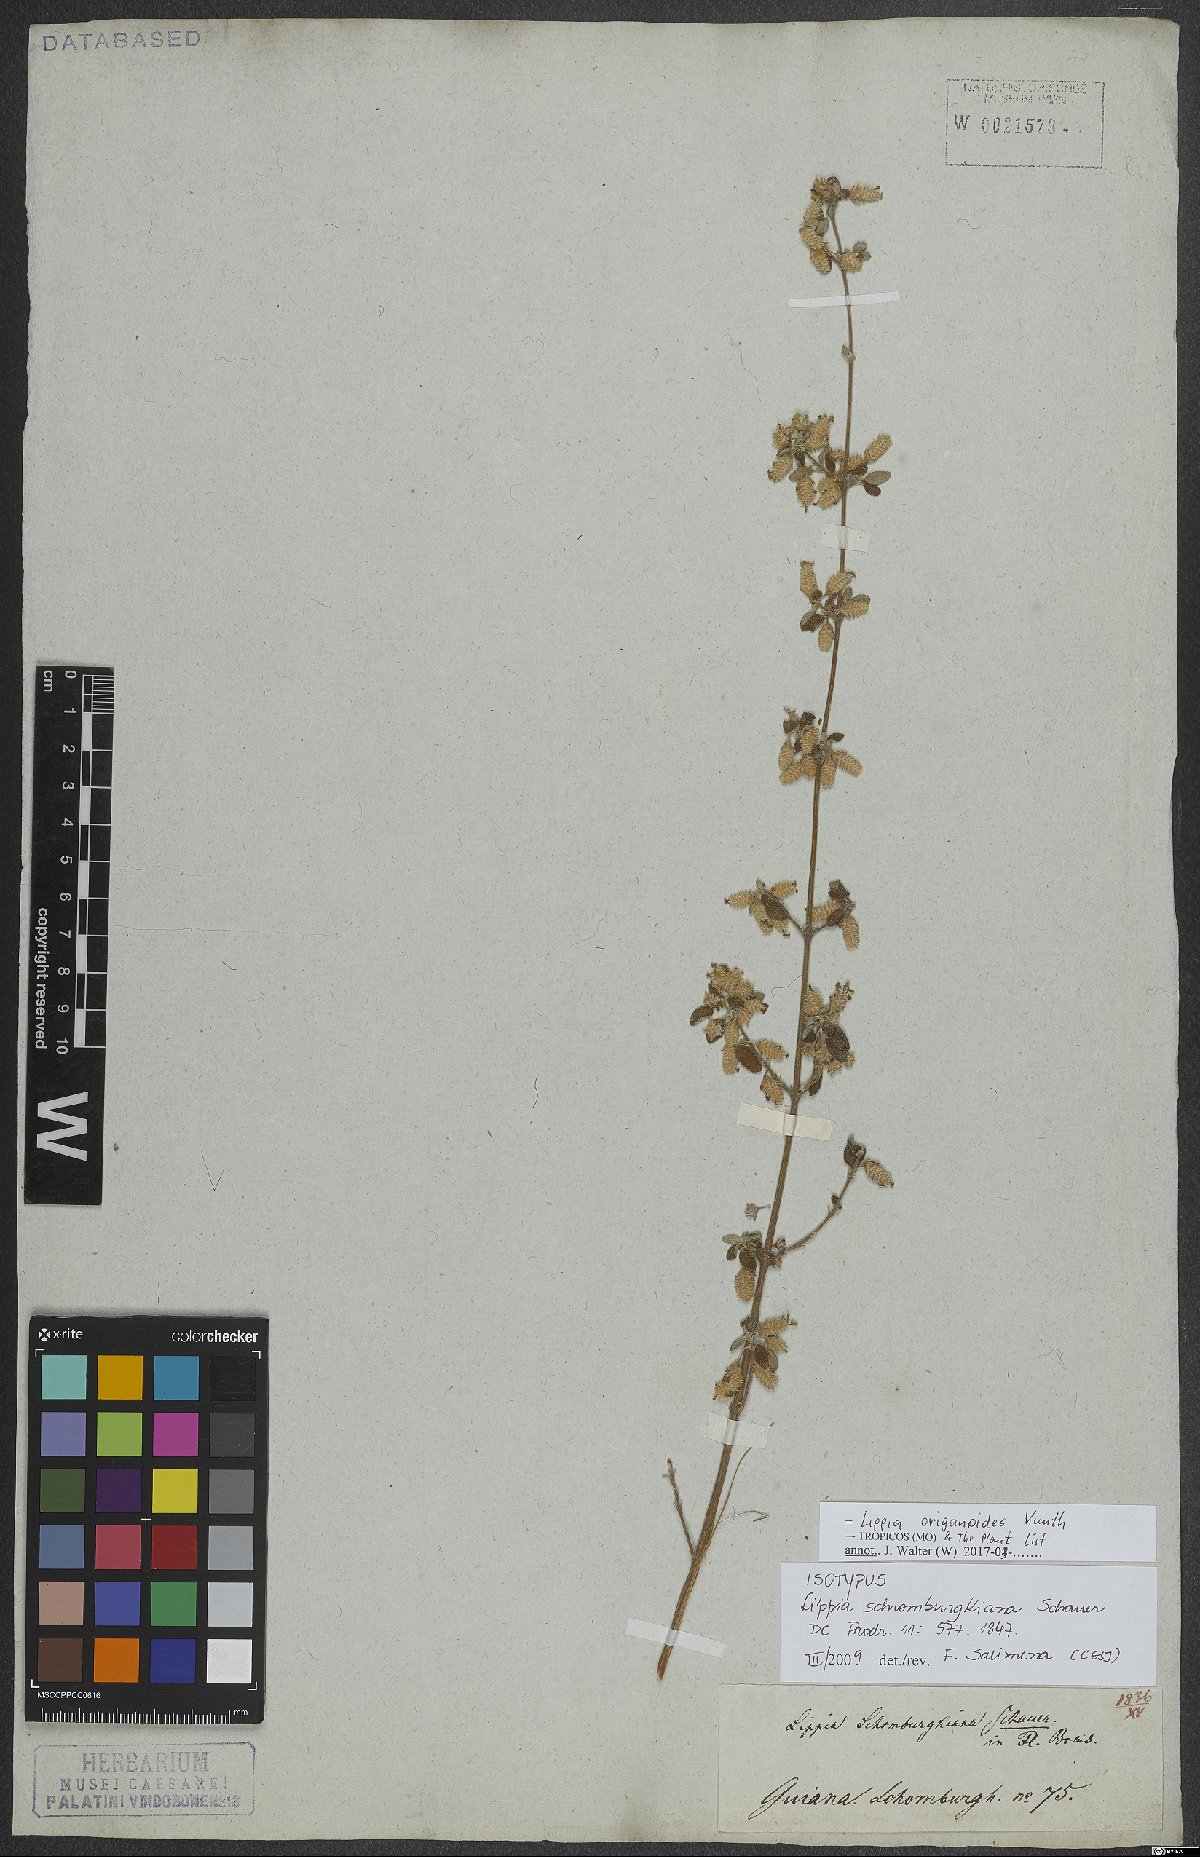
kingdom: Plantae
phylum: Tracheophyta
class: Magnoliopsida
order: Lamiales
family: Verbenaceae
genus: Lippia
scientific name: Lippia origanoides
